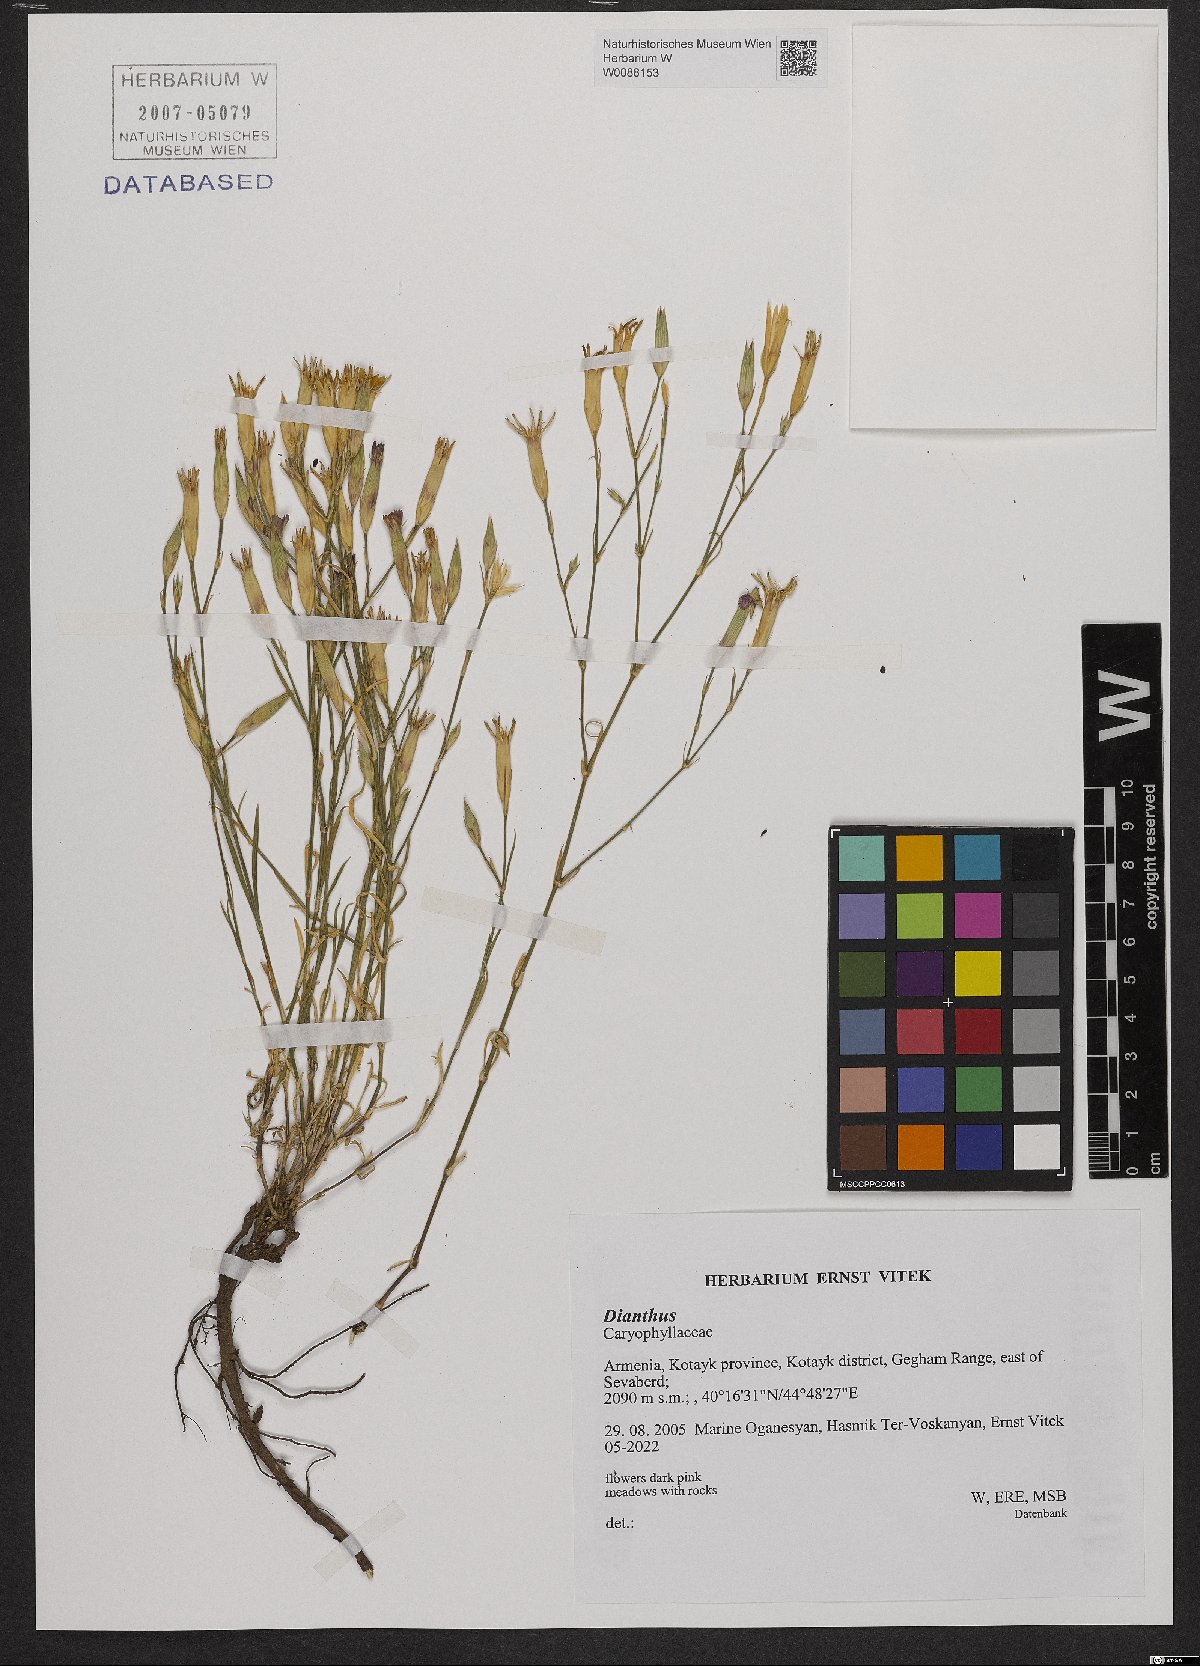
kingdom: Plantae
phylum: Tracheophyta
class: Magnoliopsida
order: Caryophyllales
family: Caryophyllaceae
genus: Dianthus
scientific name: Dianthus
